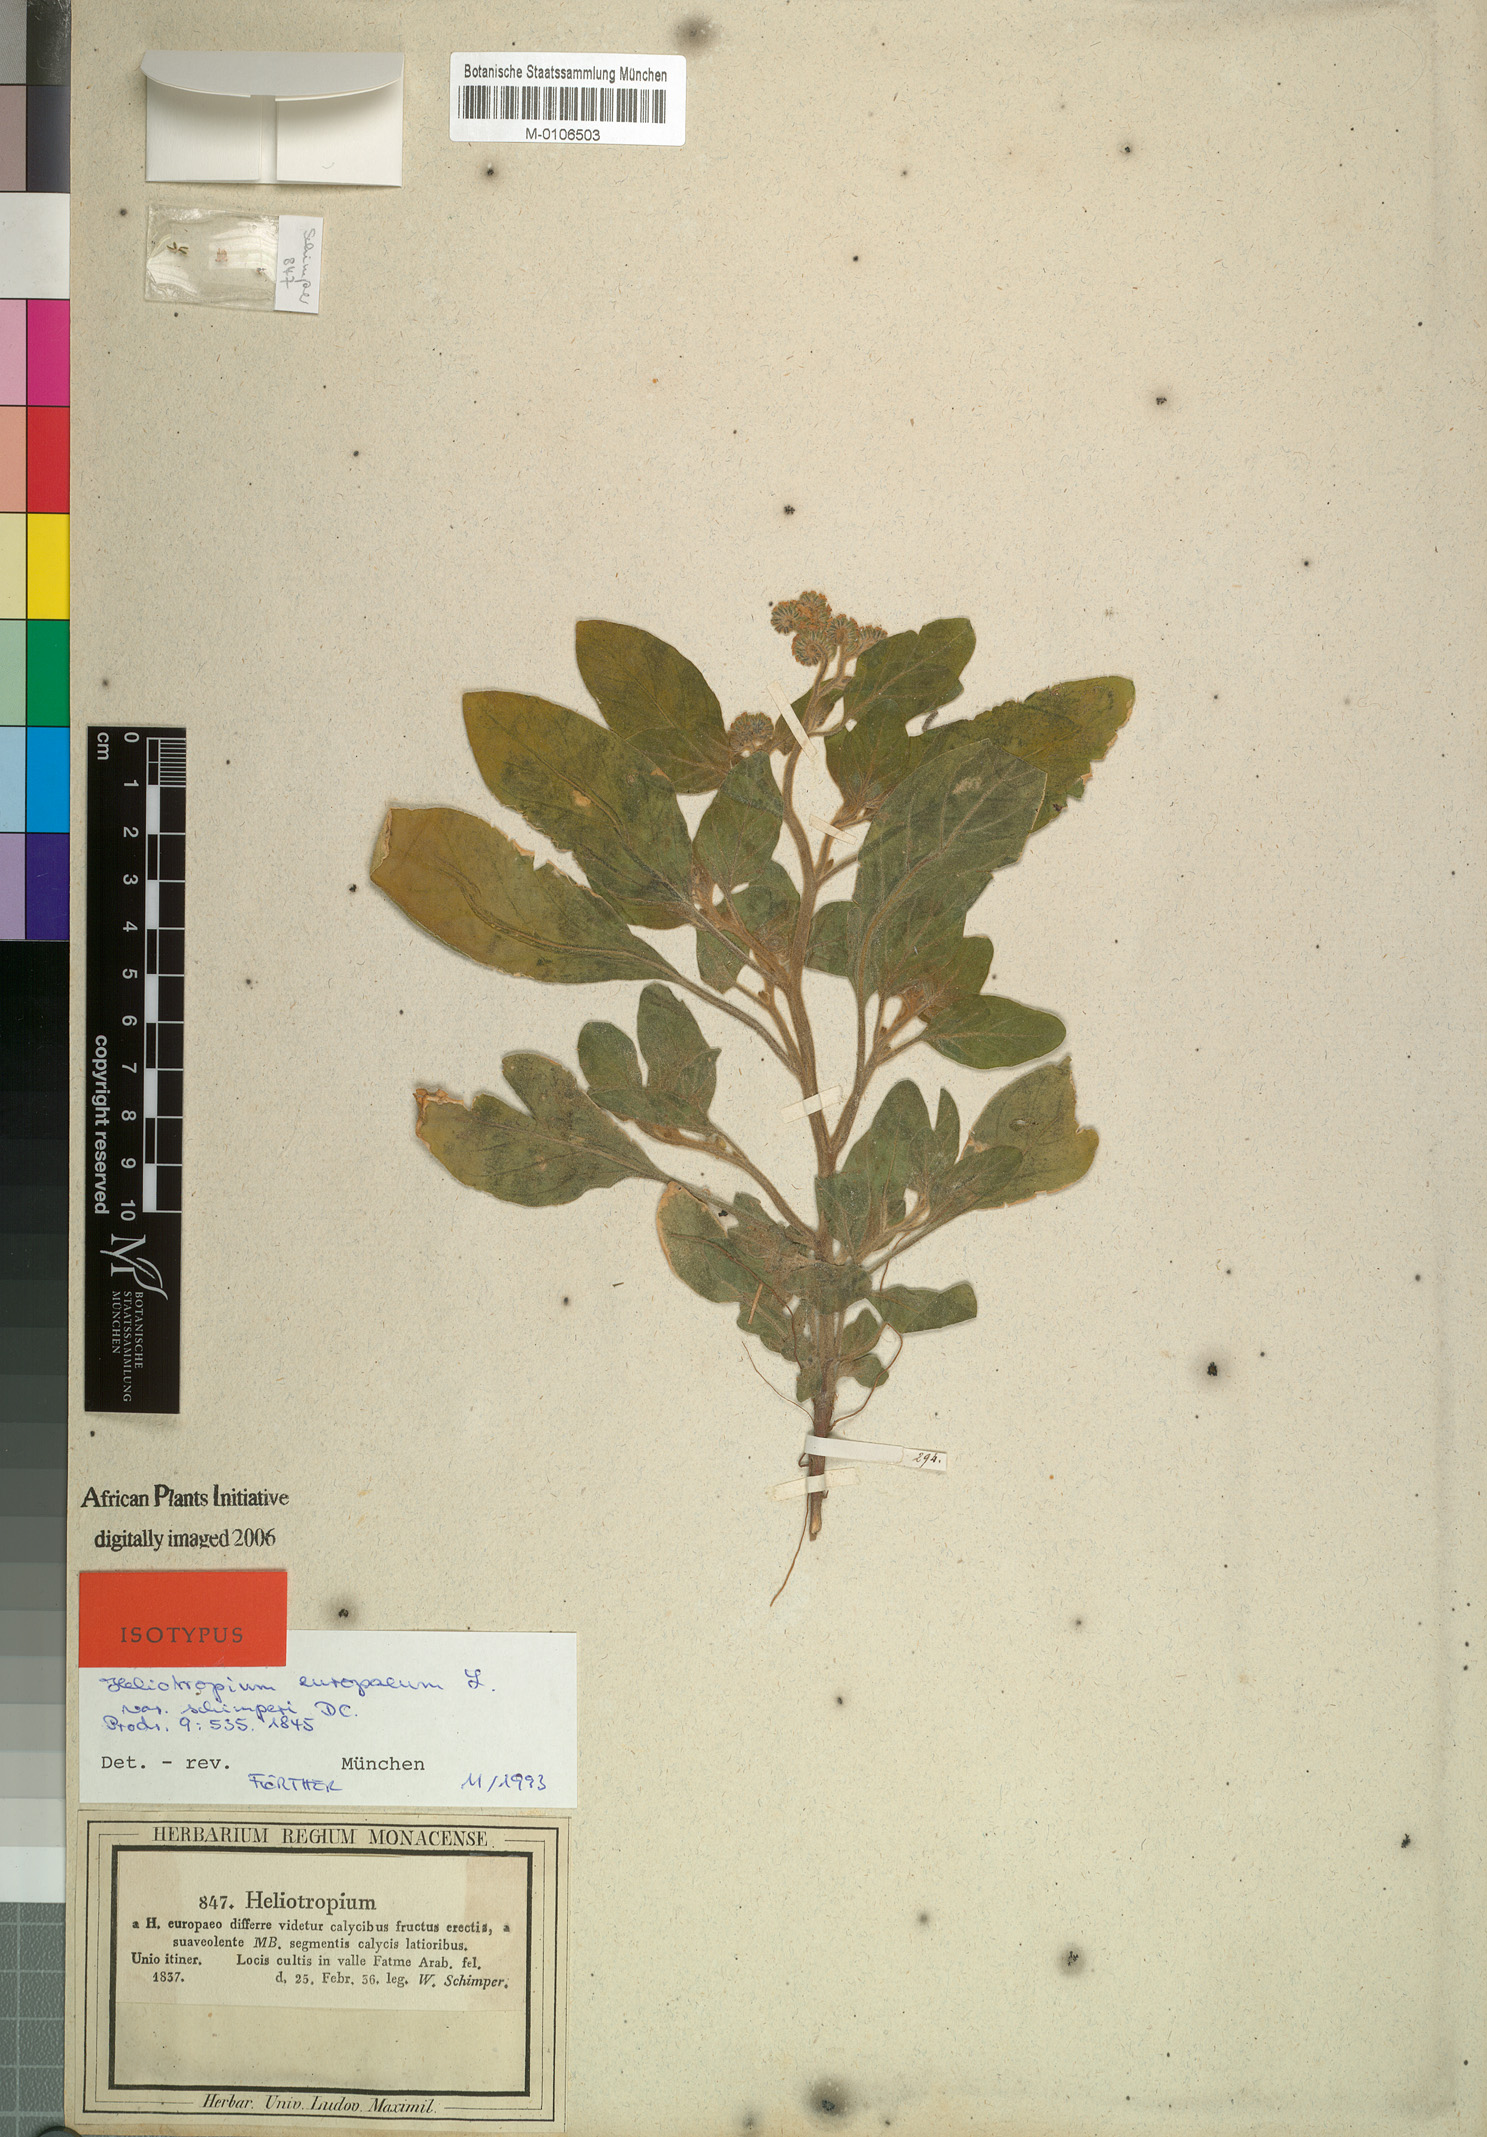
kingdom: Plantae
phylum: Tracheophyta
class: Magnoliopsida
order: Boraginales
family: Heliotropiaceae
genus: Heliotropium
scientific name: Heliotropium europaeum
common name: European heliotrope
